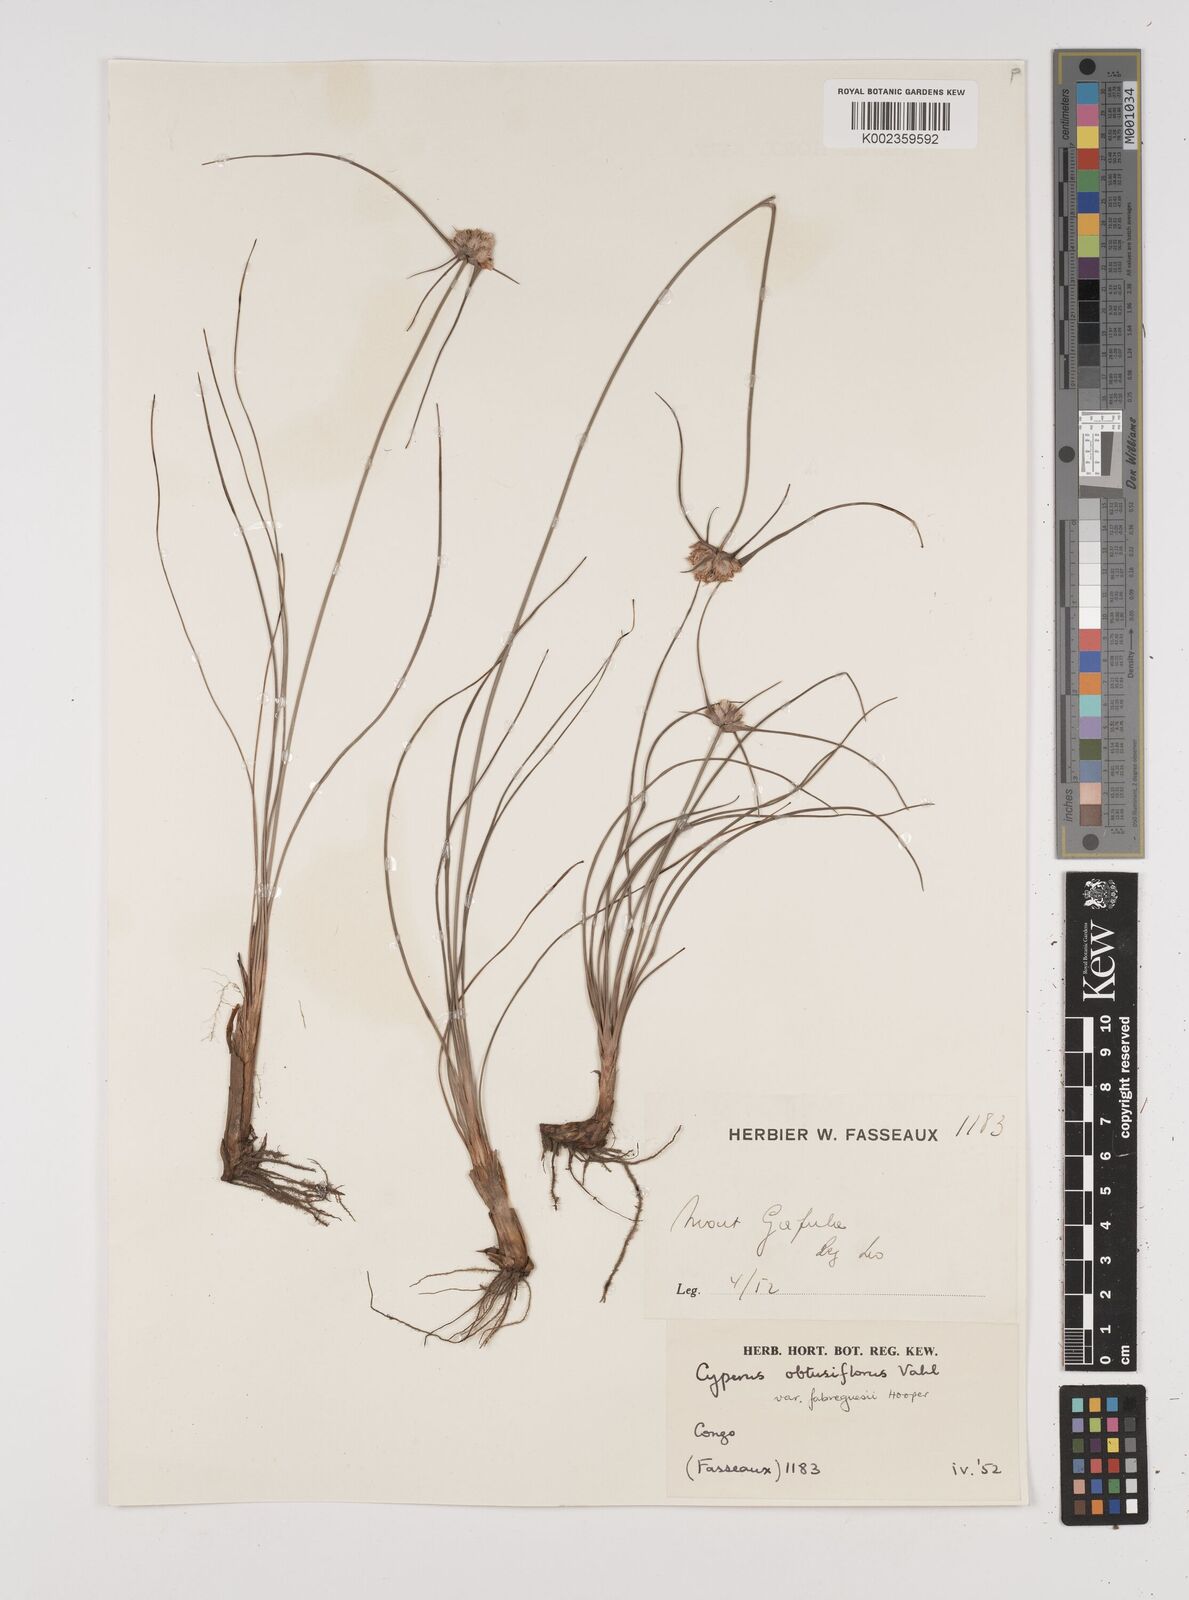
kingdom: Plantae
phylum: Tracheophyta
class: Liliopsida
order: Poales
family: Cyperaceae
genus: Cyperus
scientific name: Cyperus niveus
